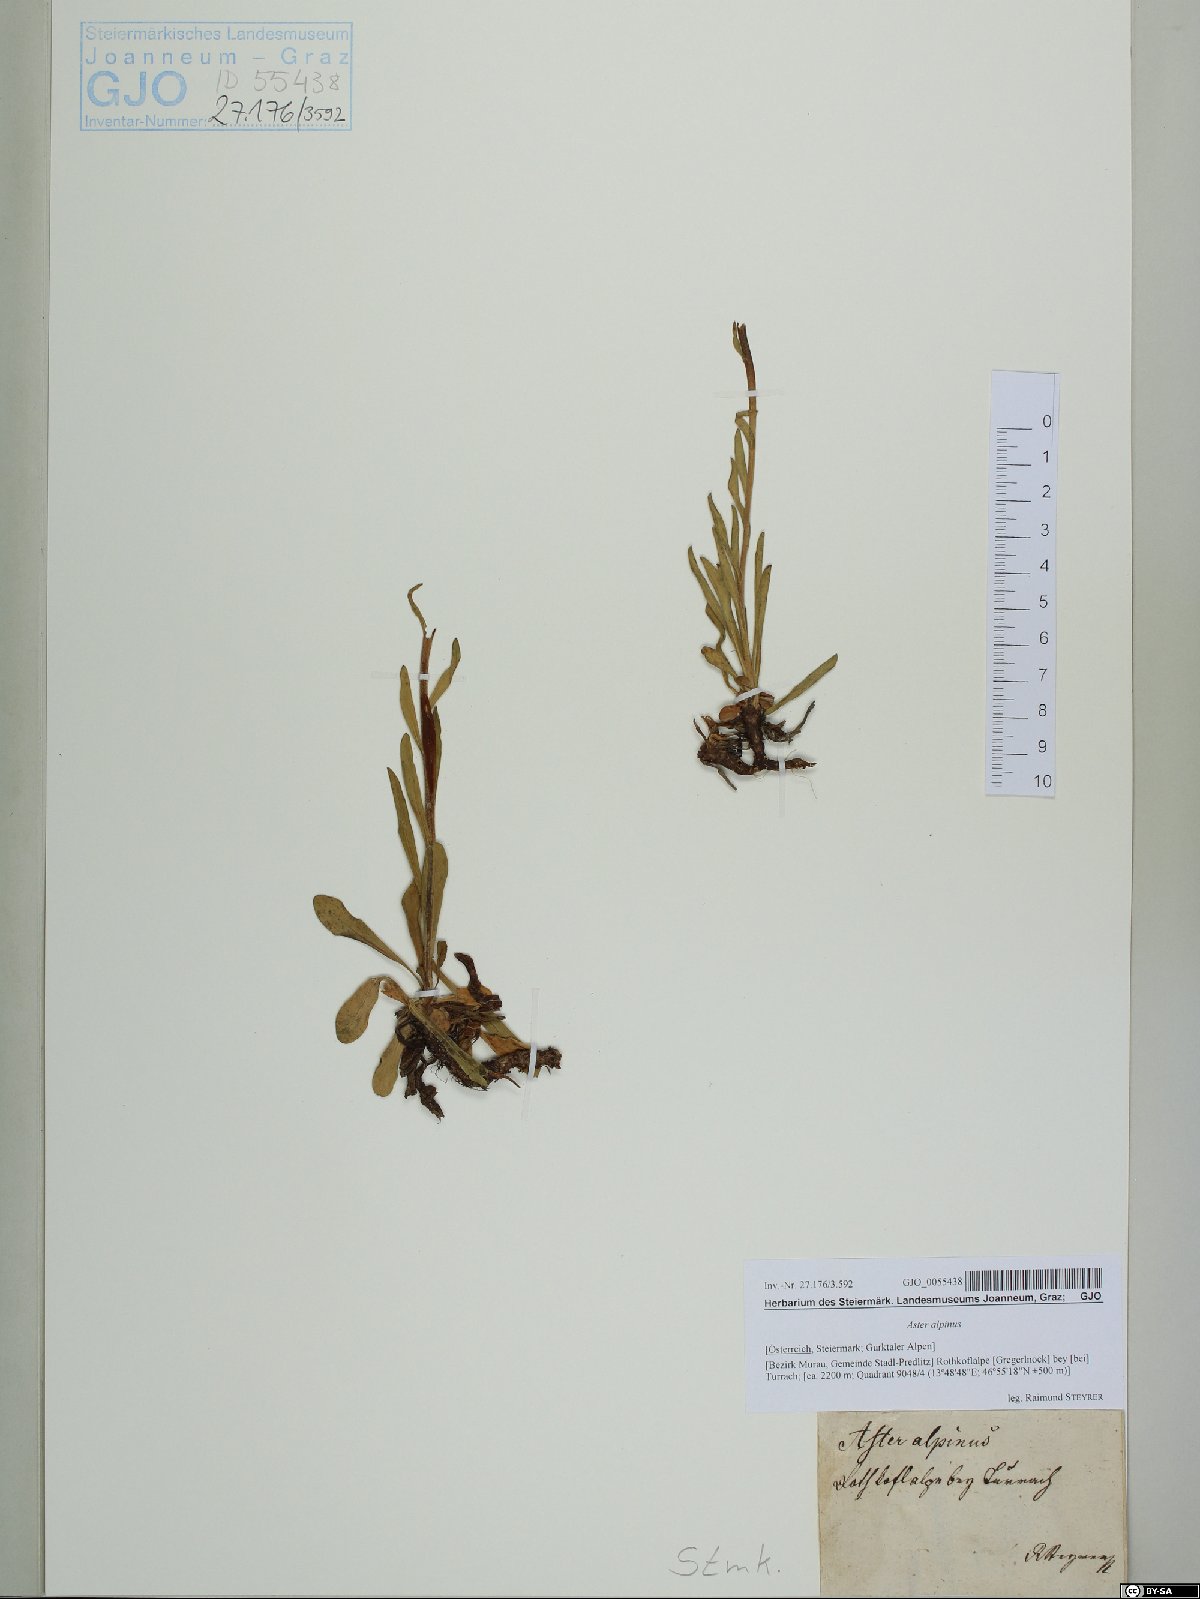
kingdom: Plantae
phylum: Tracheophyta
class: Magnoliopsida
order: Asterales
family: Asteraceae
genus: Aster
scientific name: Aster alpinus
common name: Alpine aster
